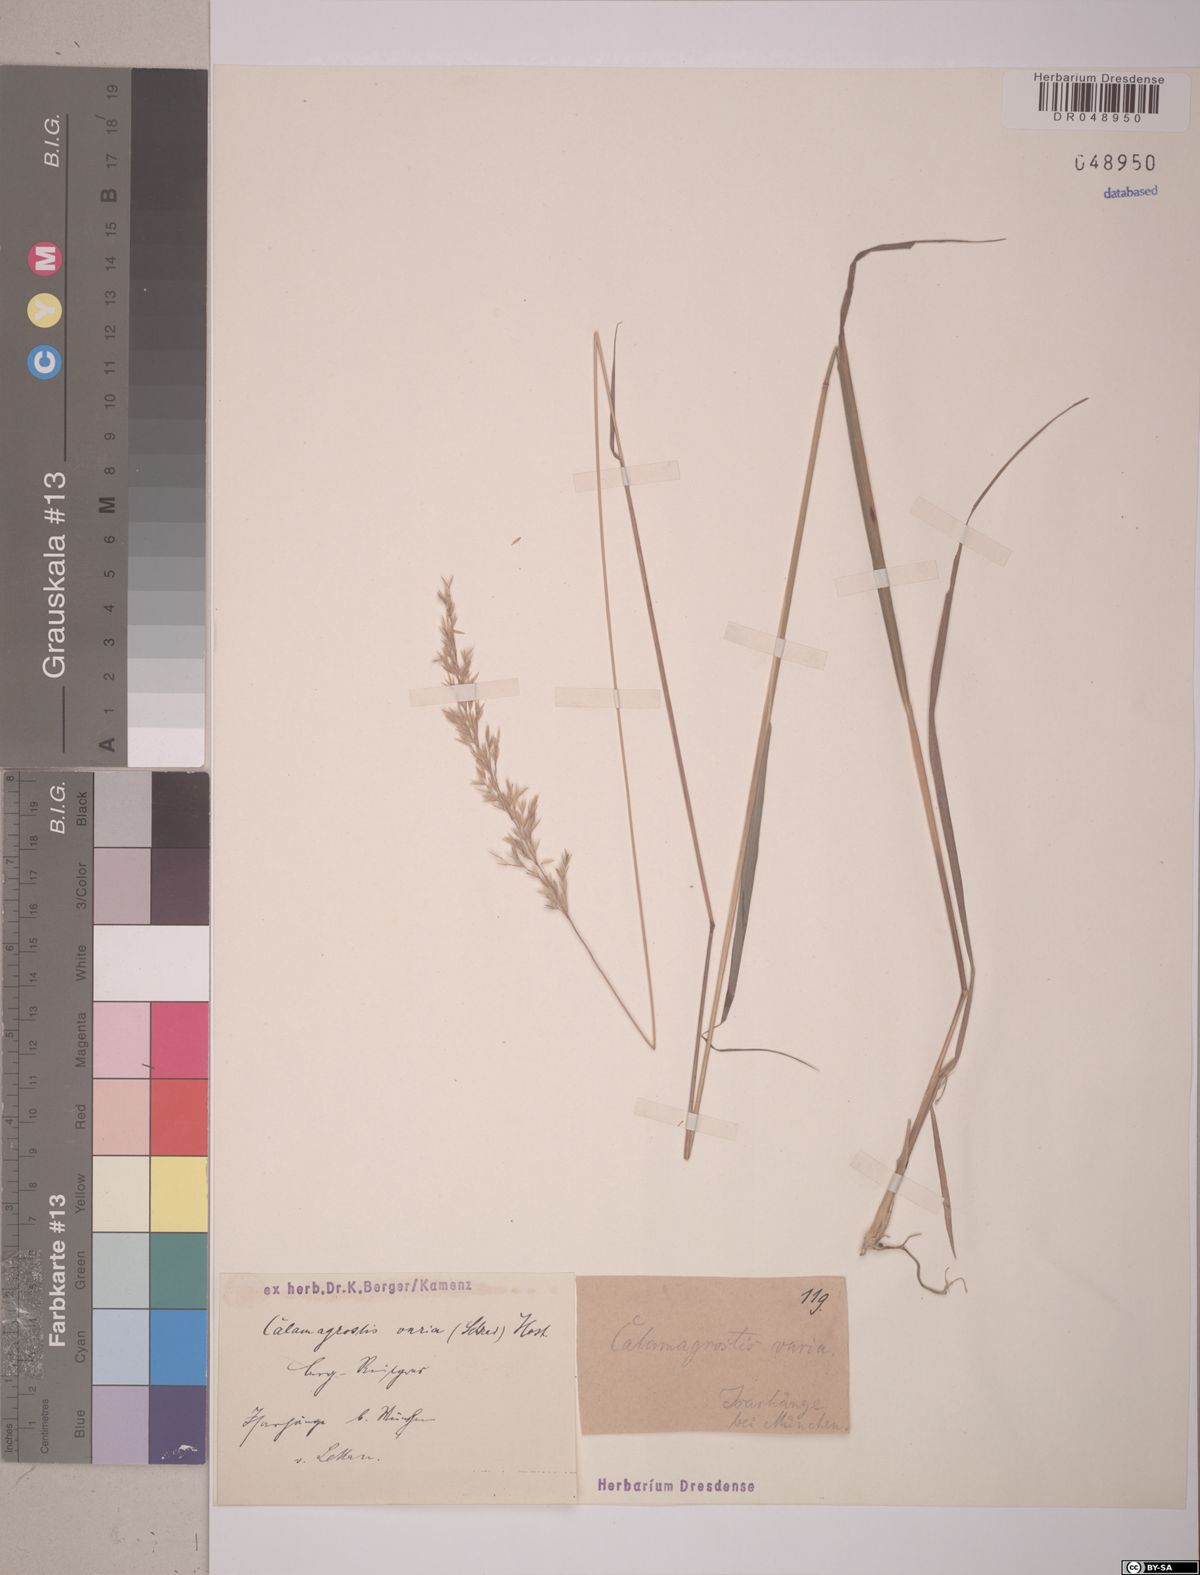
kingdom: Plantae
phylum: Tracheophyta
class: Liliopsida
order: Poales
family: Poaceae
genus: Calamagrostis
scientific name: Calamagrostis varia
